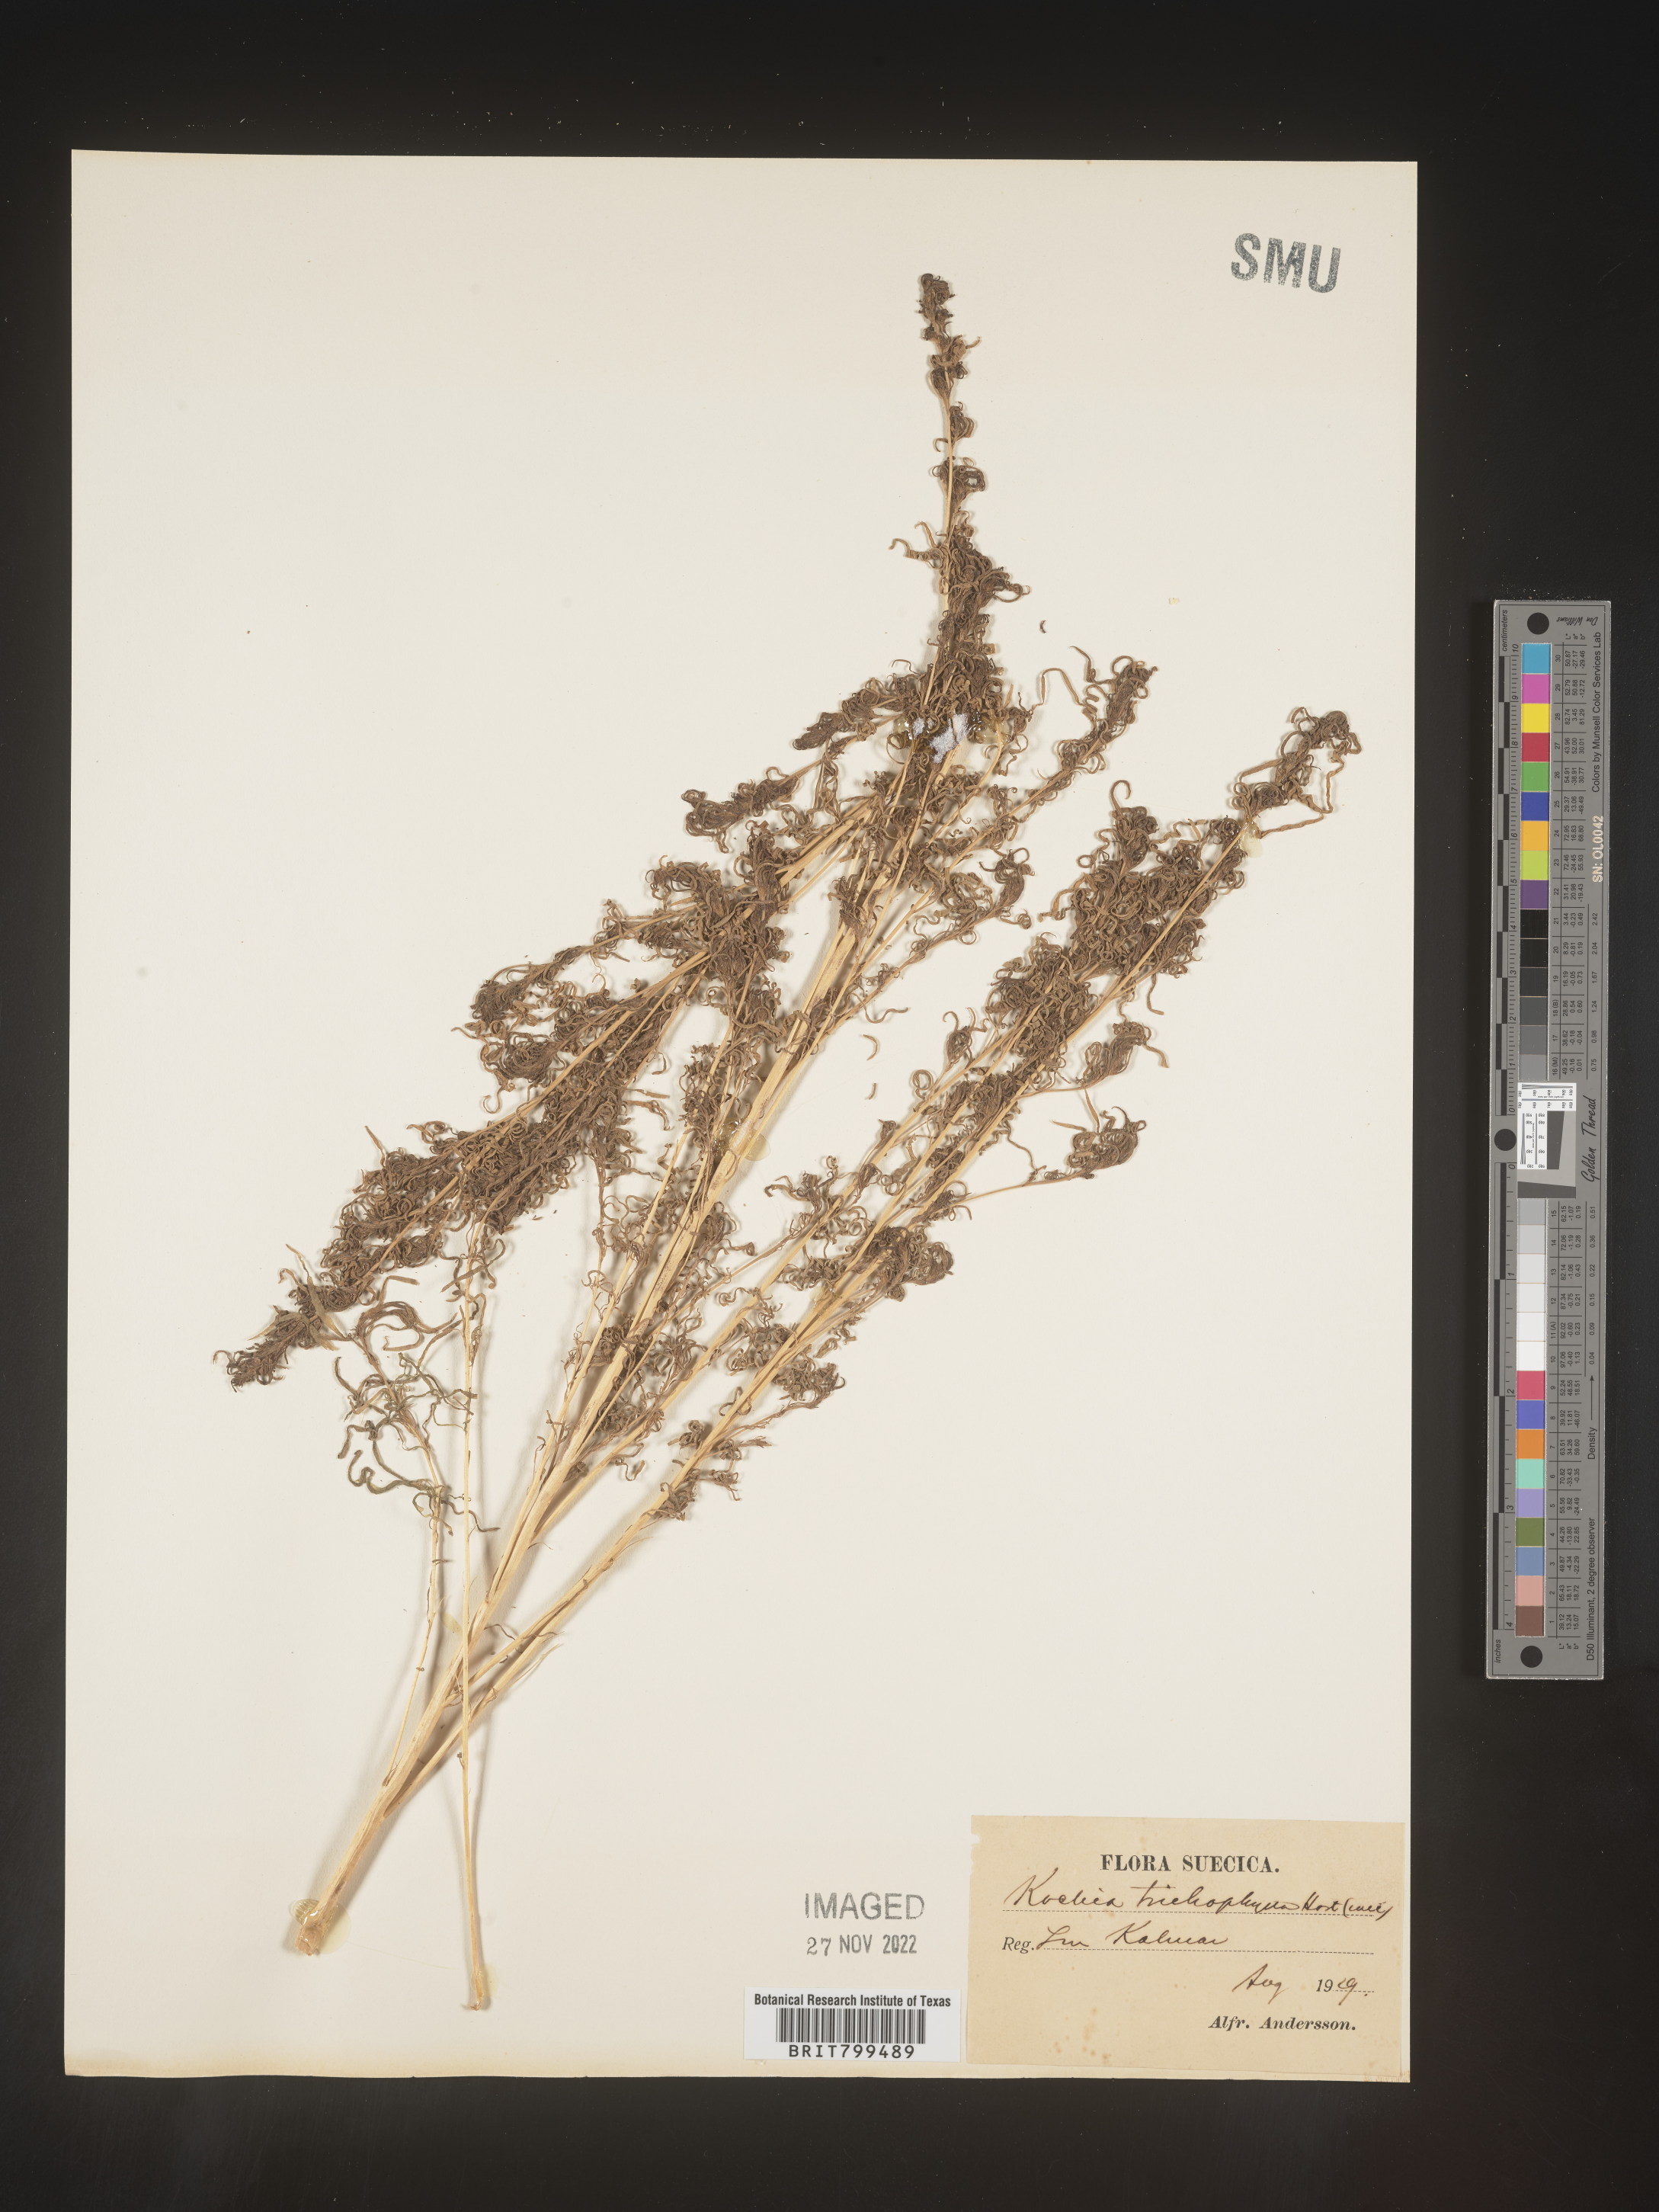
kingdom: Plantae
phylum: Tracheophyta
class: Magnoliopsida
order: Caryophyllales
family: Amaranthaceae
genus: Bassia
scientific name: Bassia
